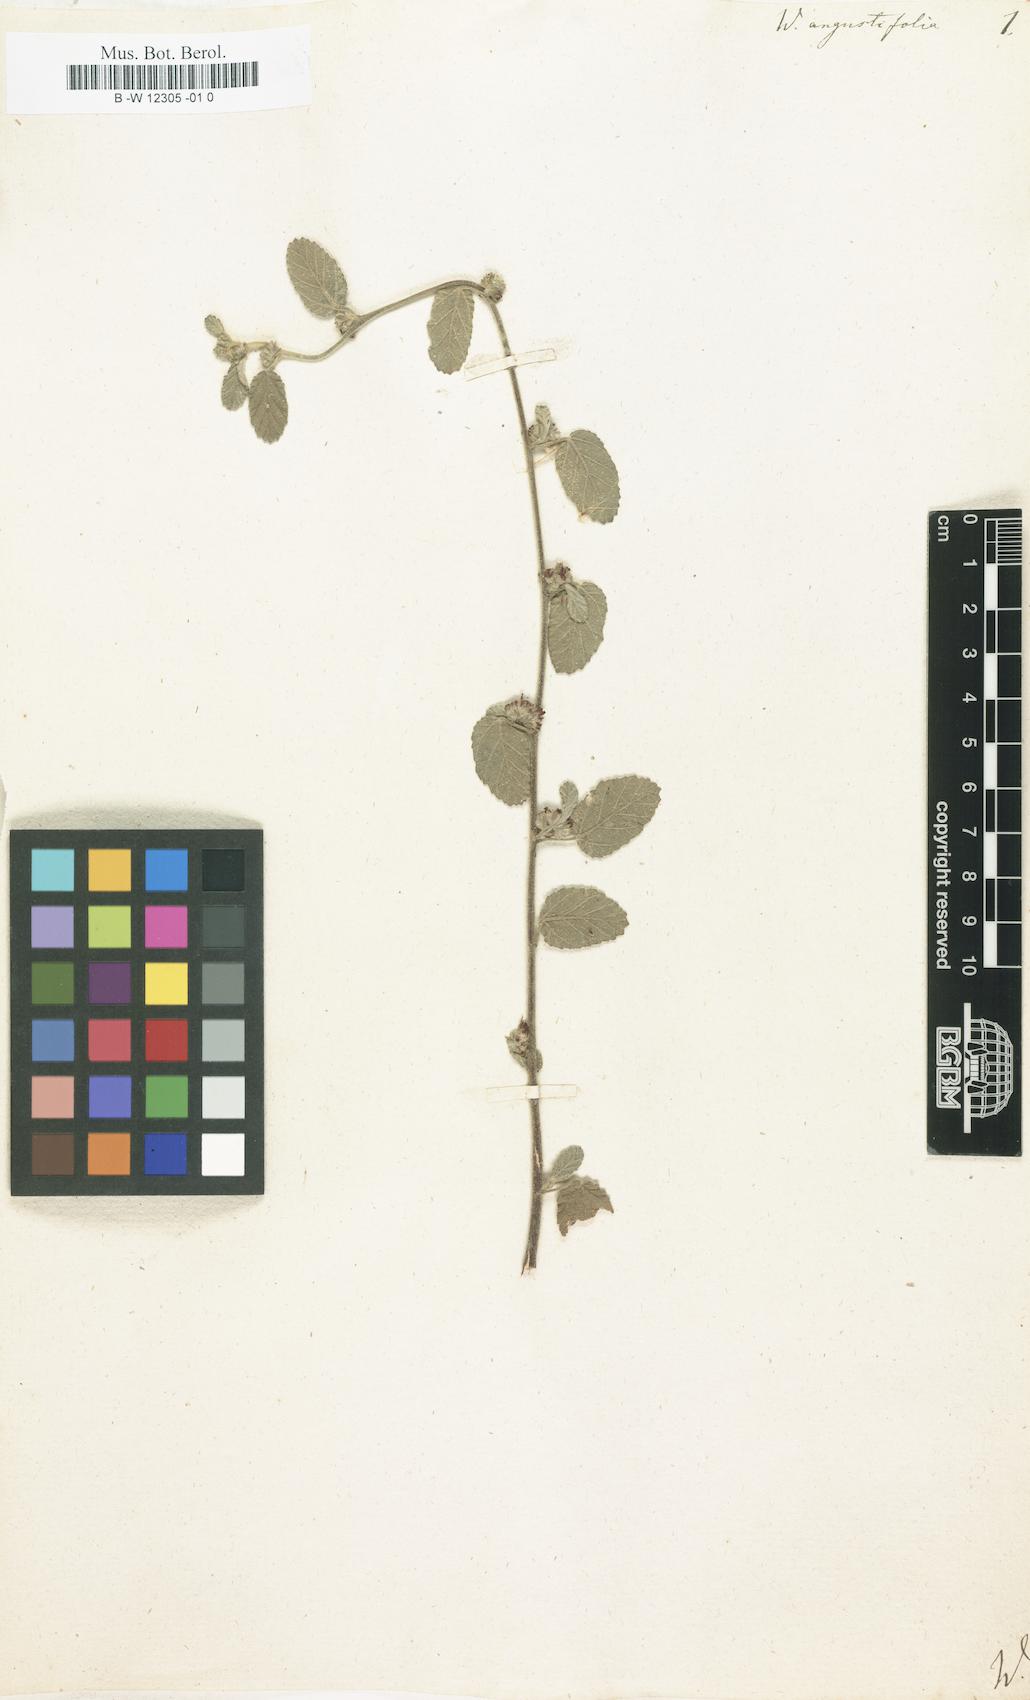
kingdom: Plantae
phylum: Tracheophyta
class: Magnoliopsida
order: Malvales
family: Malvaceae
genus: Melochia
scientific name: Melochia spicata
